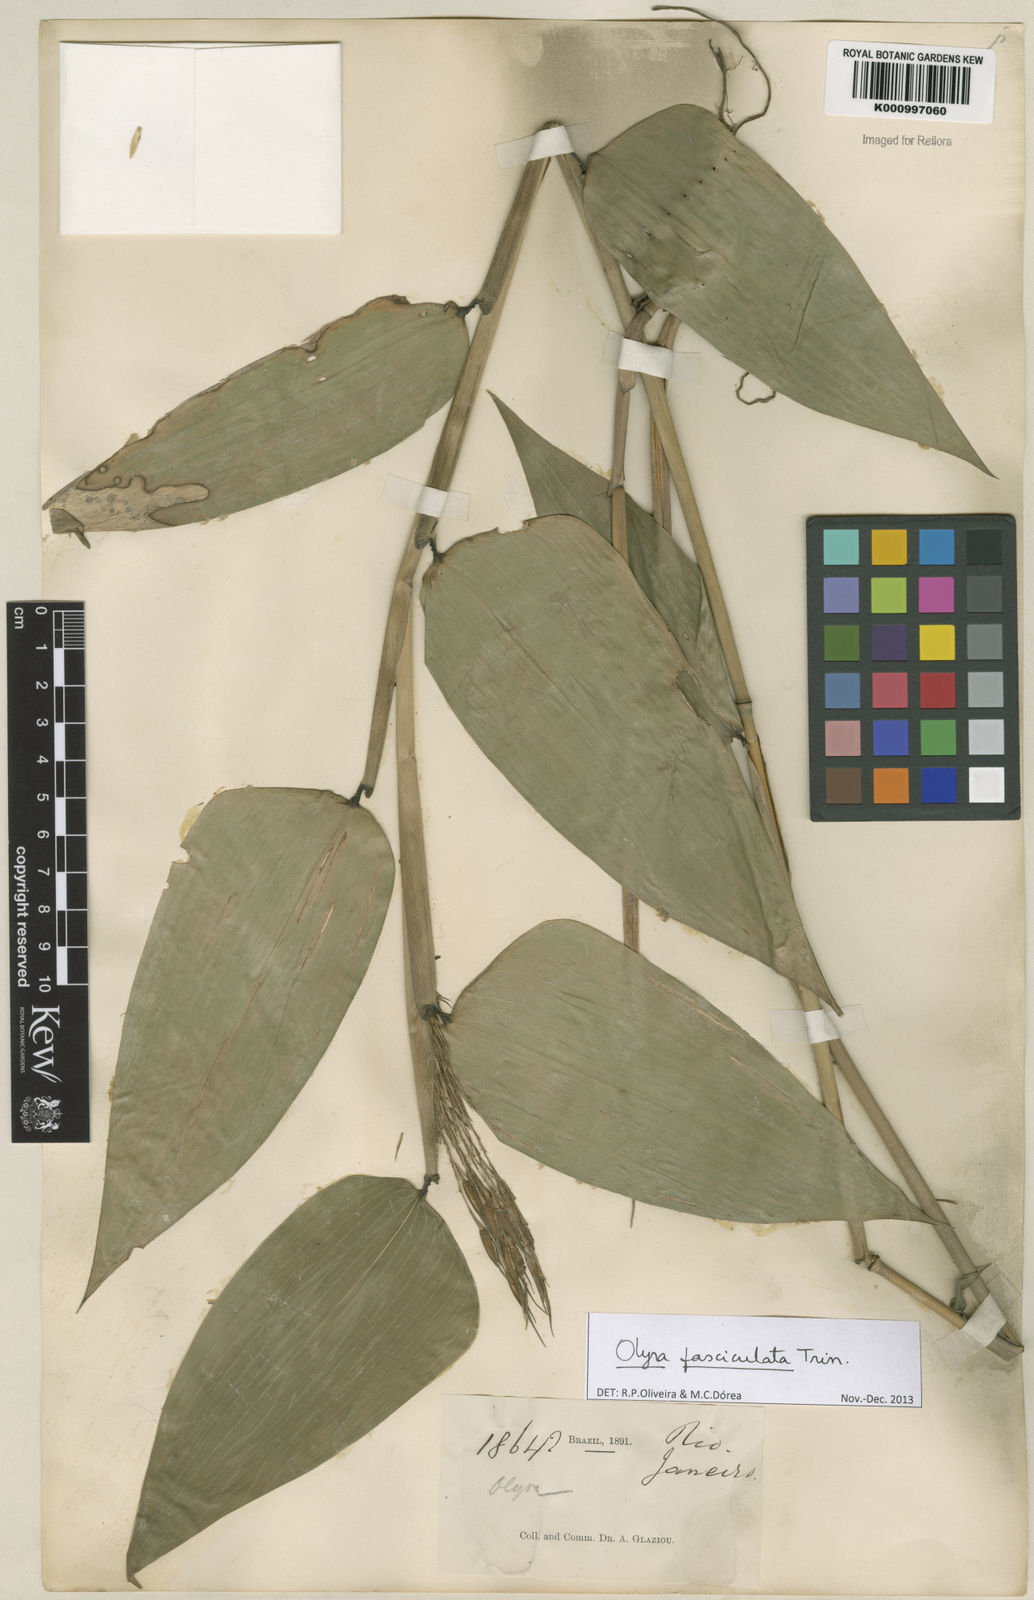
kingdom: Plantae
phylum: Tracheophyta
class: Liliopsida
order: Poales
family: Poaceae
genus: Olyra
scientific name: Olyra fasciculata
